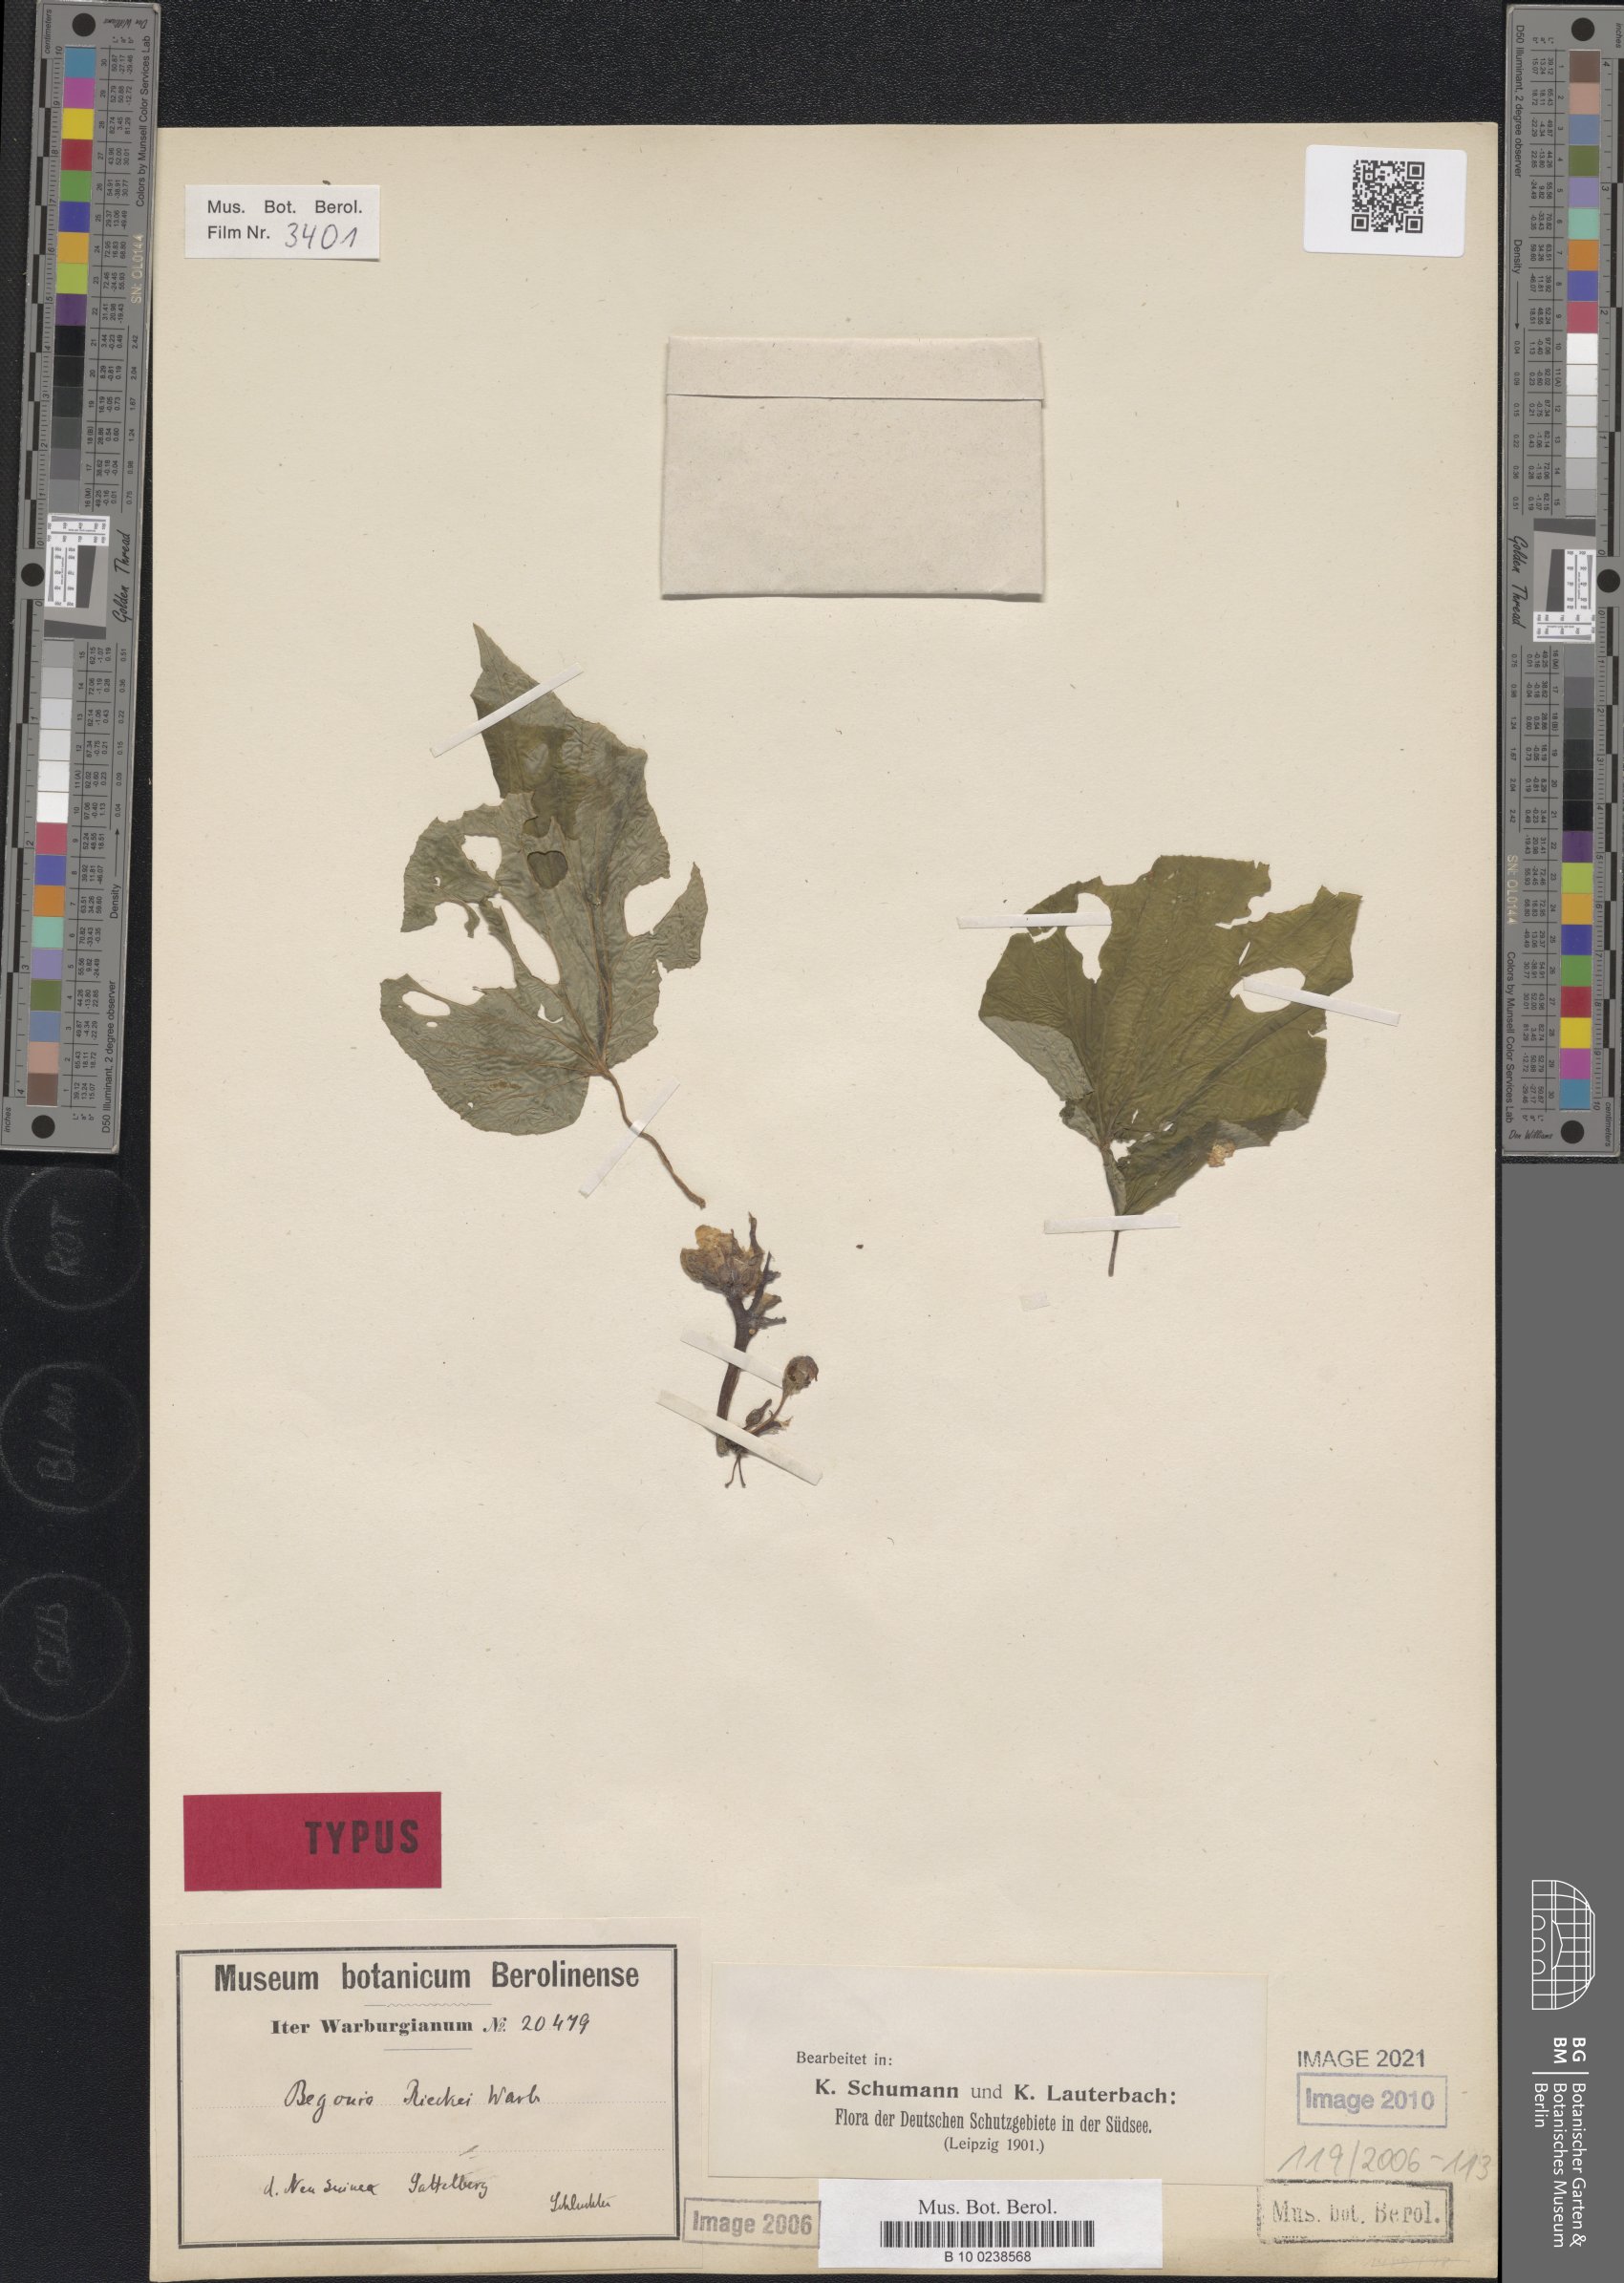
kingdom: Plantae
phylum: Tracheophyta
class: Magnoliopsida
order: Cucurbitales
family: Begoniaceae
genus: Begonia
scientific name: Begonia rieckei
